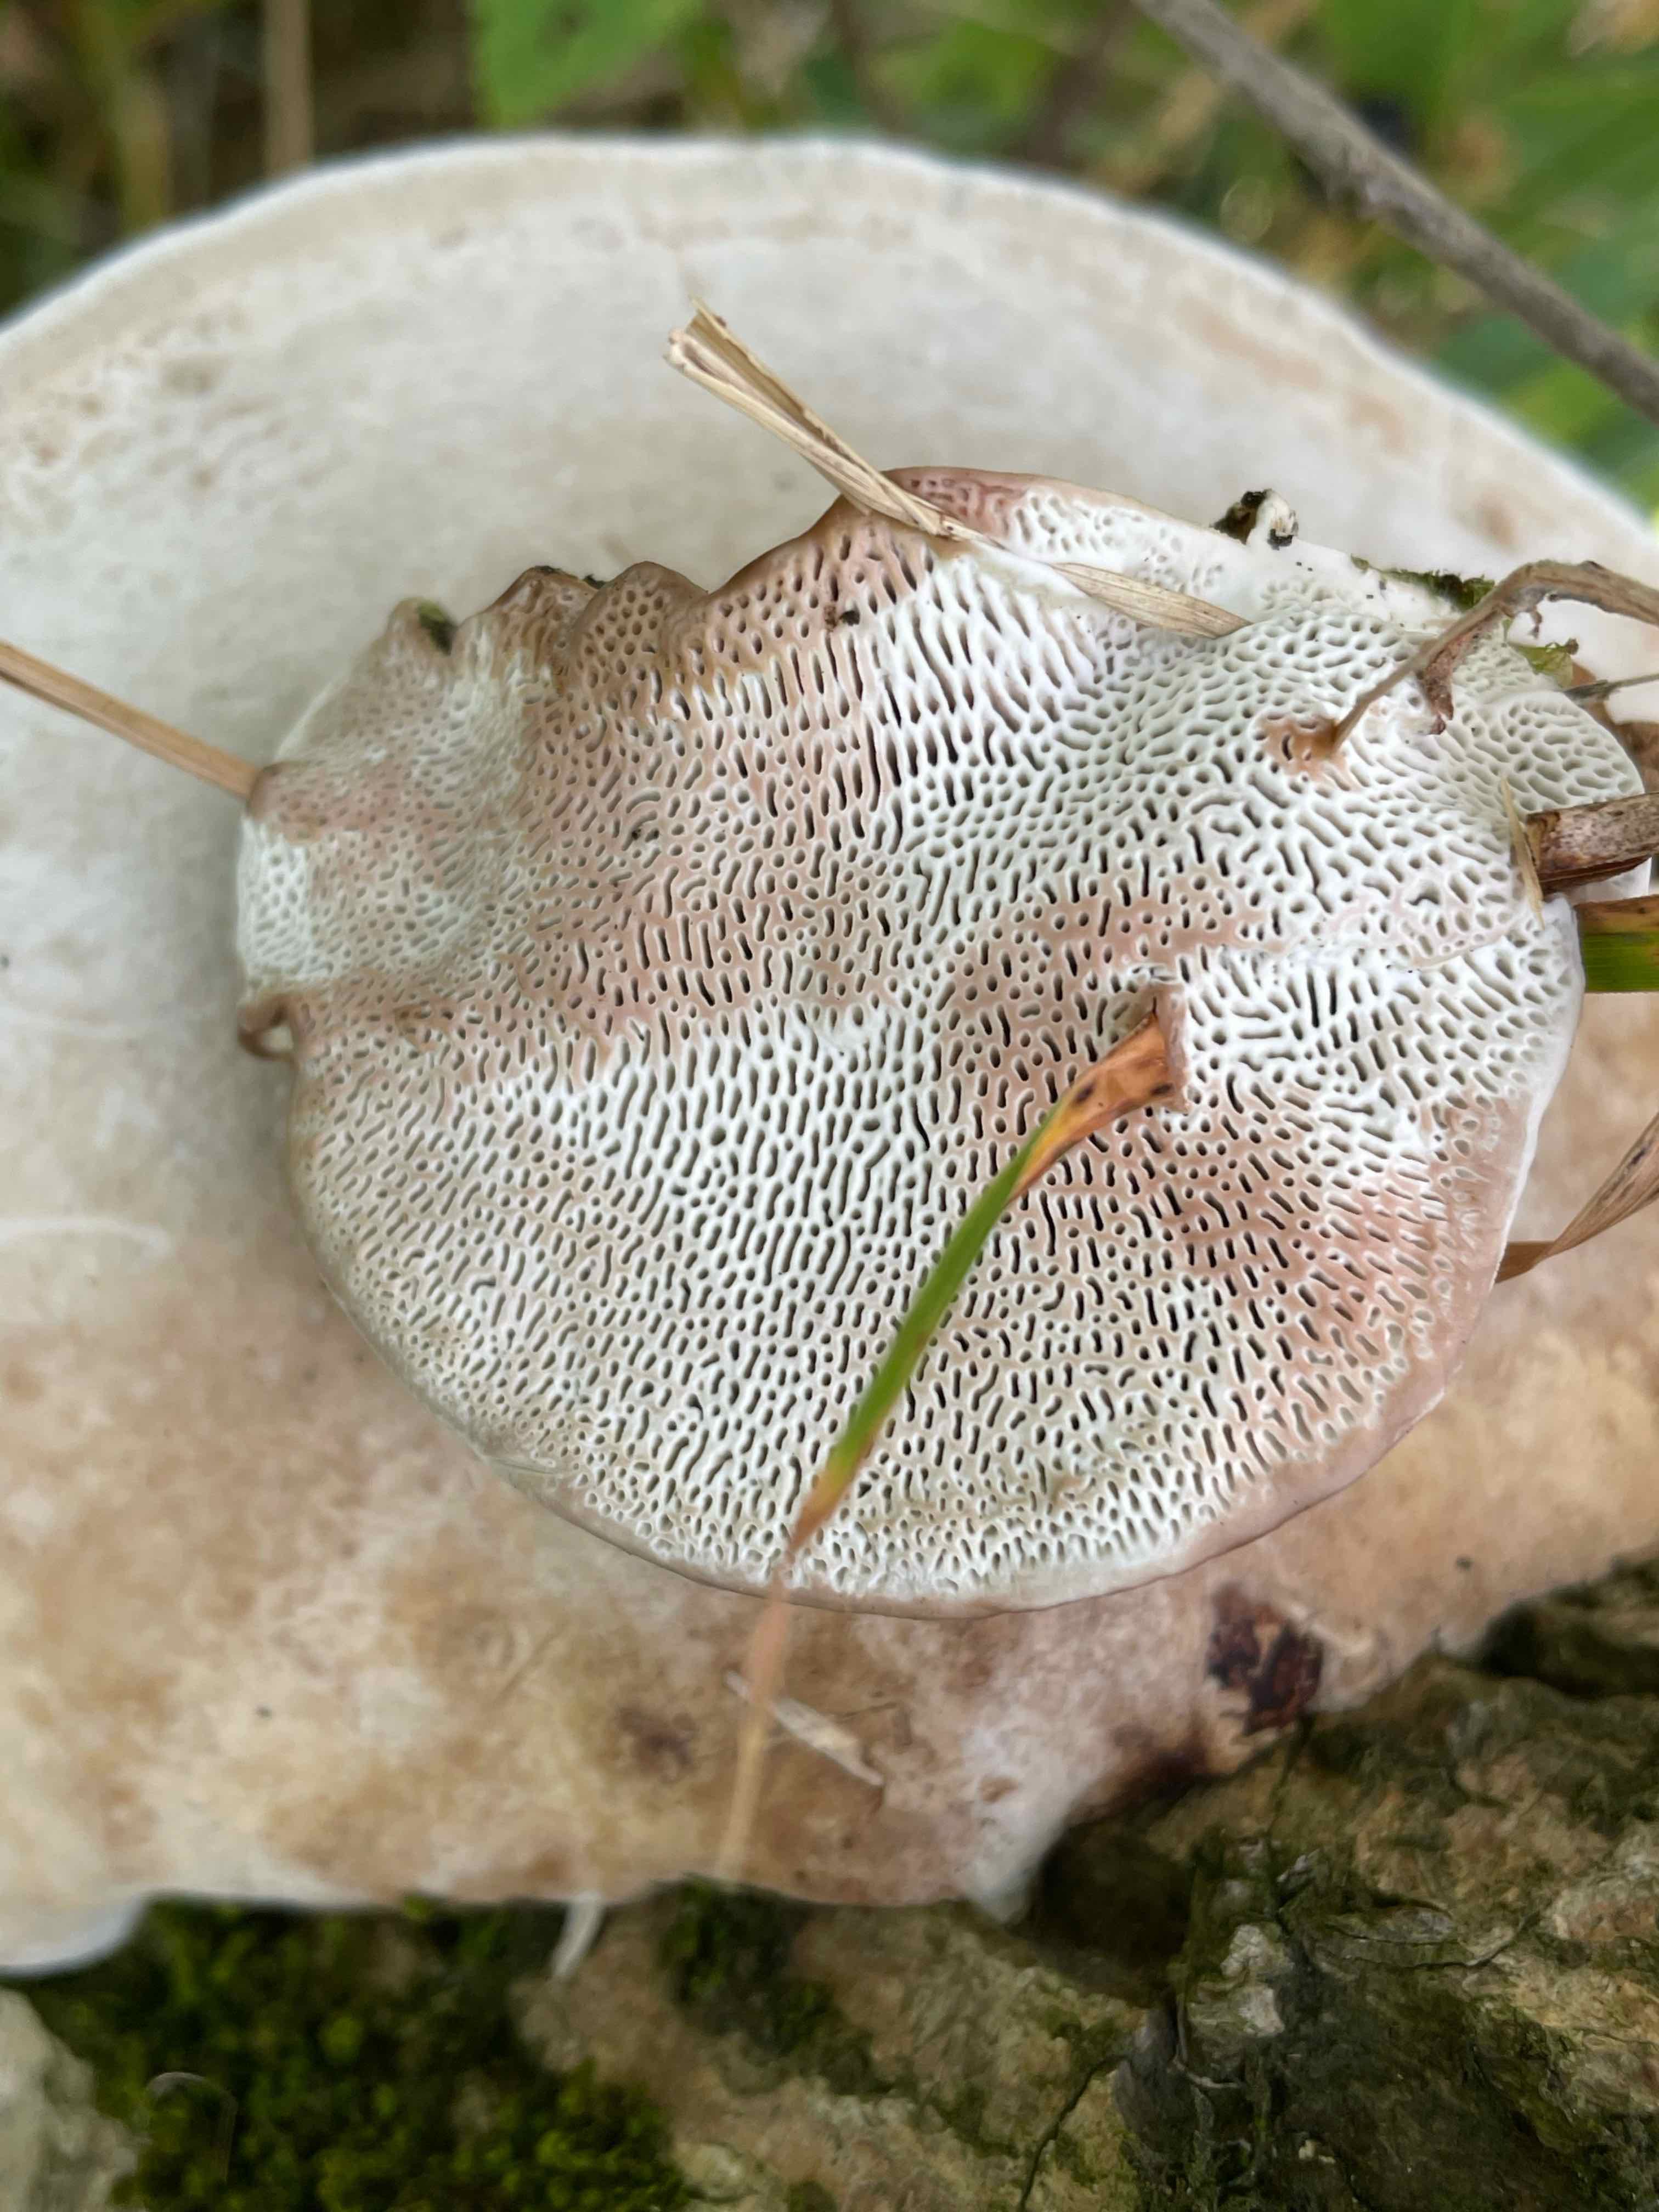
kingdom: Fungi
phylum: Basidiomycota
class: Agaricomycetes
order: Polyporales
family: Polyporaceae
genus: Daedaleopsis
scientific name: Daedaleopsis confragosa
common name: rødmende læderporesvamp
